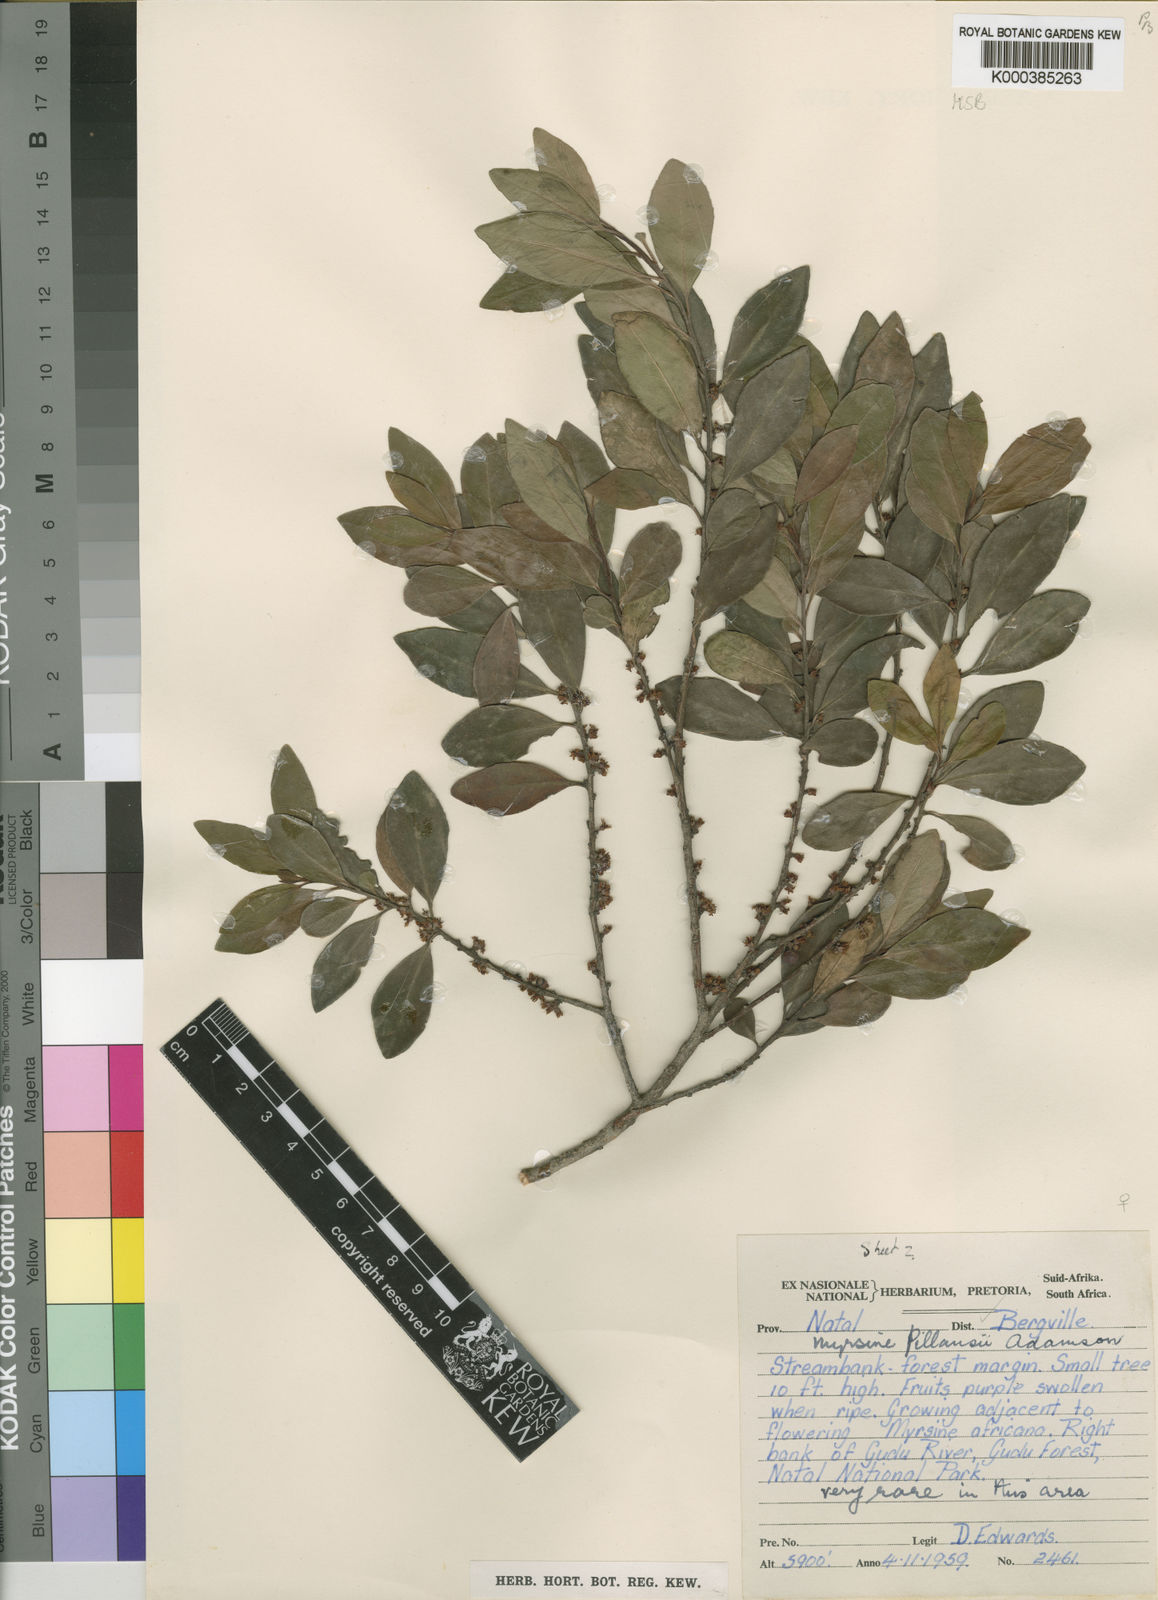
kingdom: Plantae
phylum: Tracheophyta
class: Magnoliopsida
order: Ericales
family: Primulaceae
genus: Myrsine
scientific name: Myrsine pillansii
